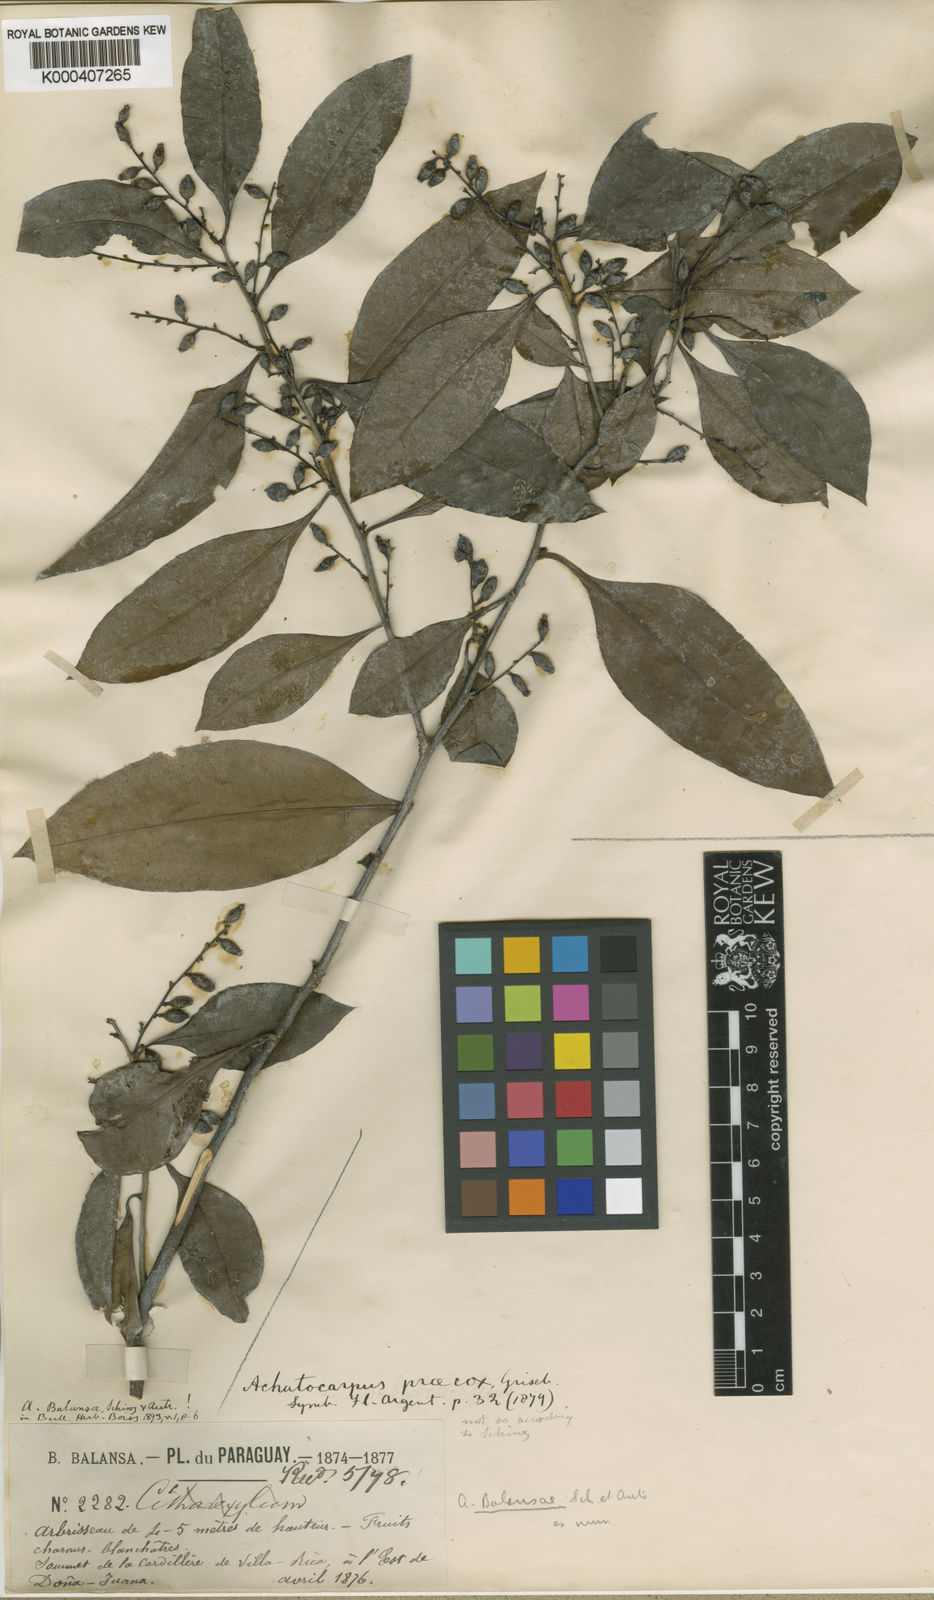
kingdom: Plantae
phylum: Tracheophyta
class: Magnoliopsida
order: Caryophyllales
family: Achatocarpaceae
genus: Achatocarpus
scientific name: Achatocarpus balansae
